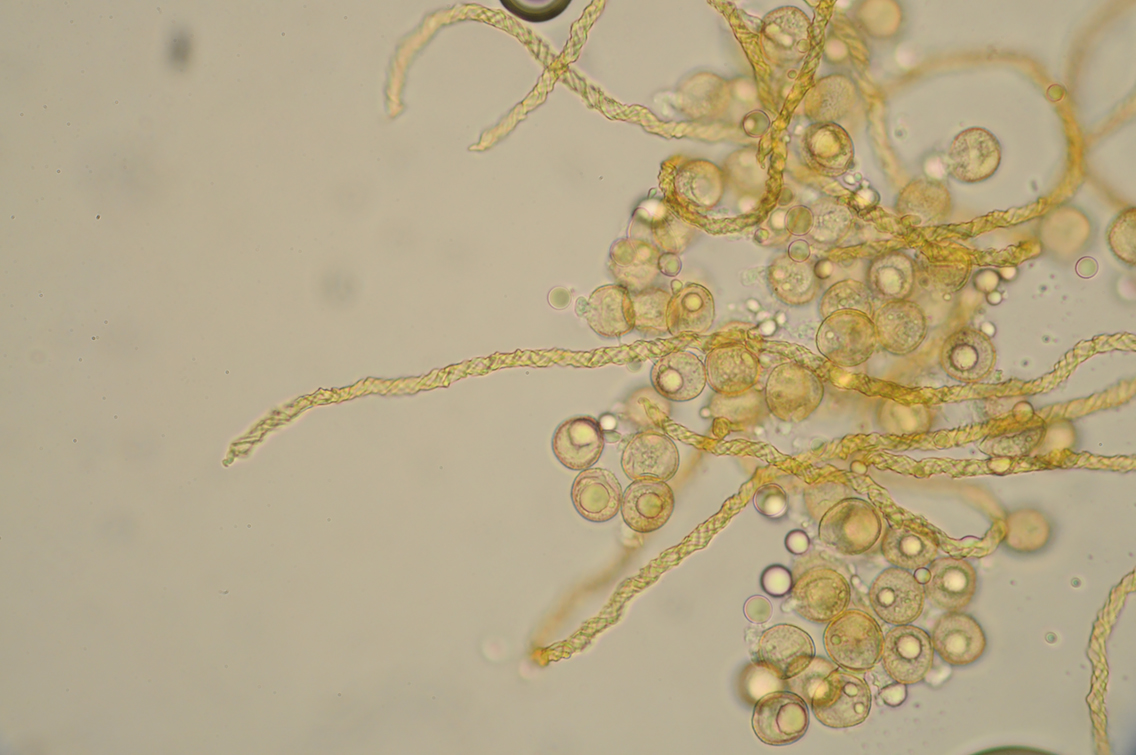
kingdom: Protozoa
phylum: Mycetozoa
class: Myxomycetes
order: Trichiales
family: Trichiaceae
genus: Trichia
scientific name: Trichia
